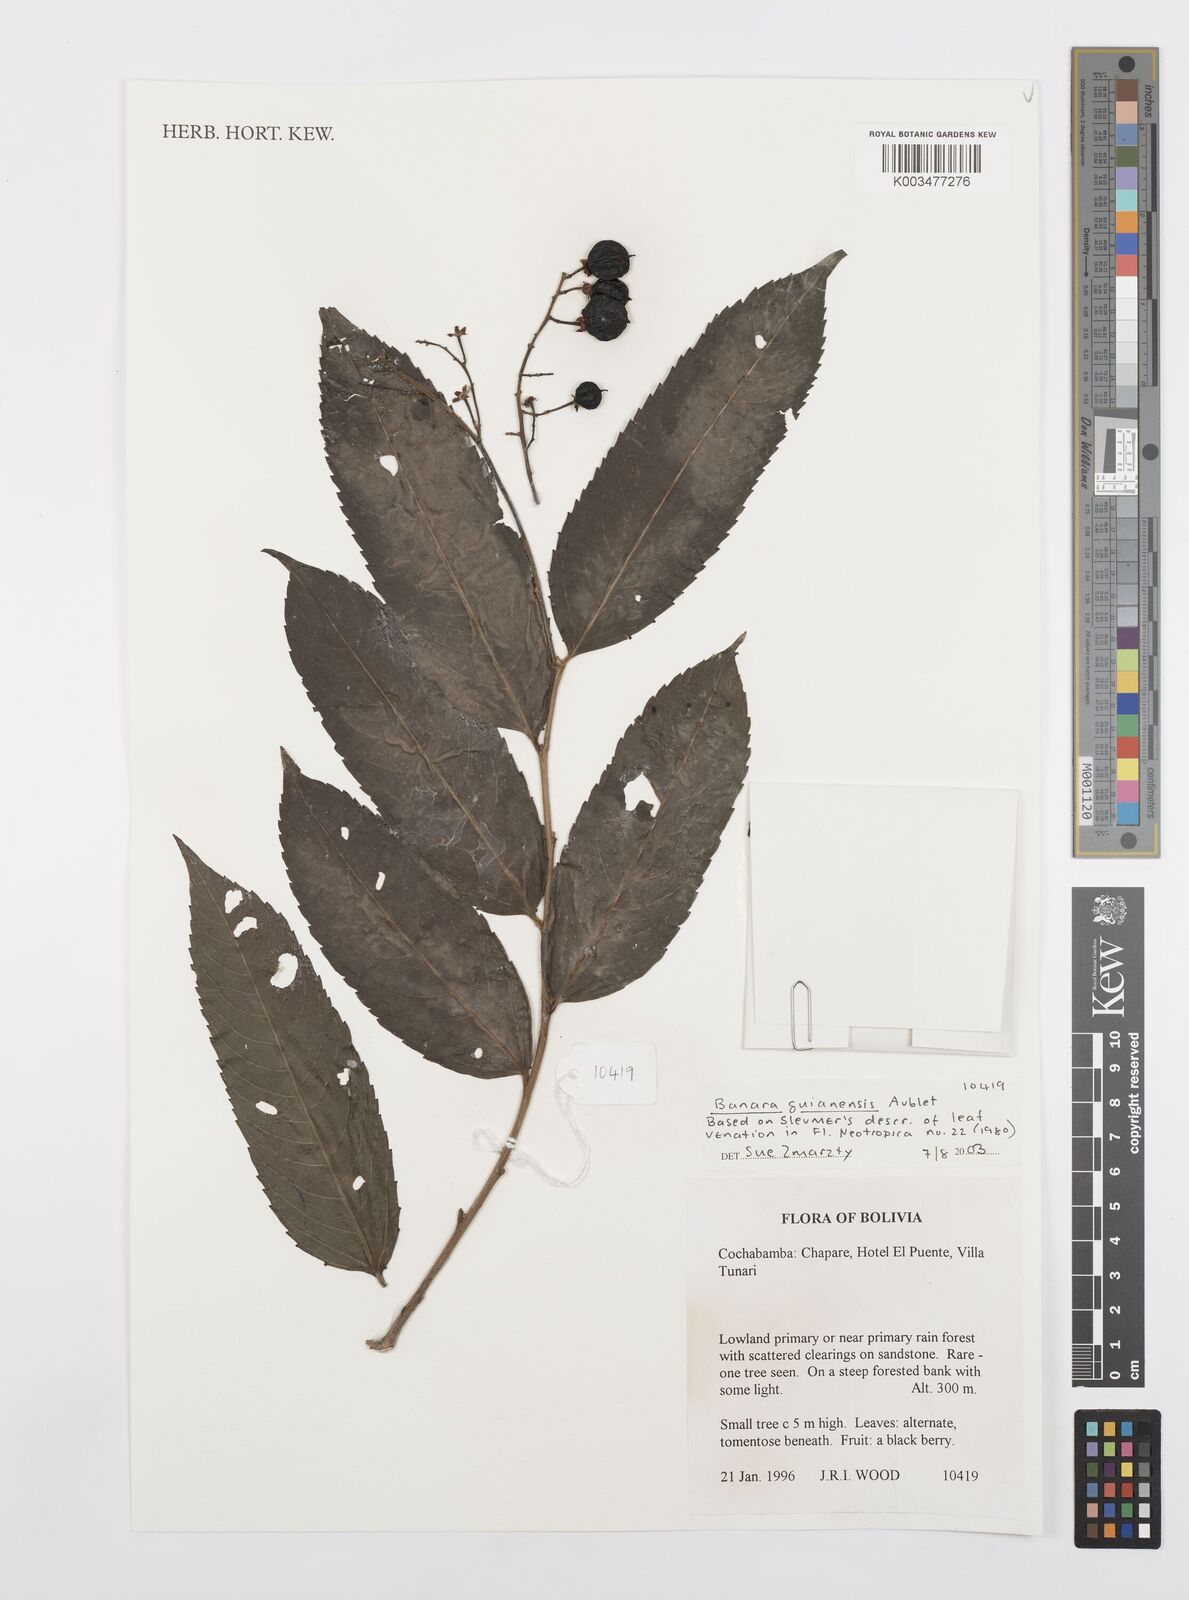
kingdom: Plantae
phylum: Tracheophyta
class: Magnoliopsida
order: Malpighiales
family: Salicaceae
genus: Banara
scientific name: Banara guianensis
